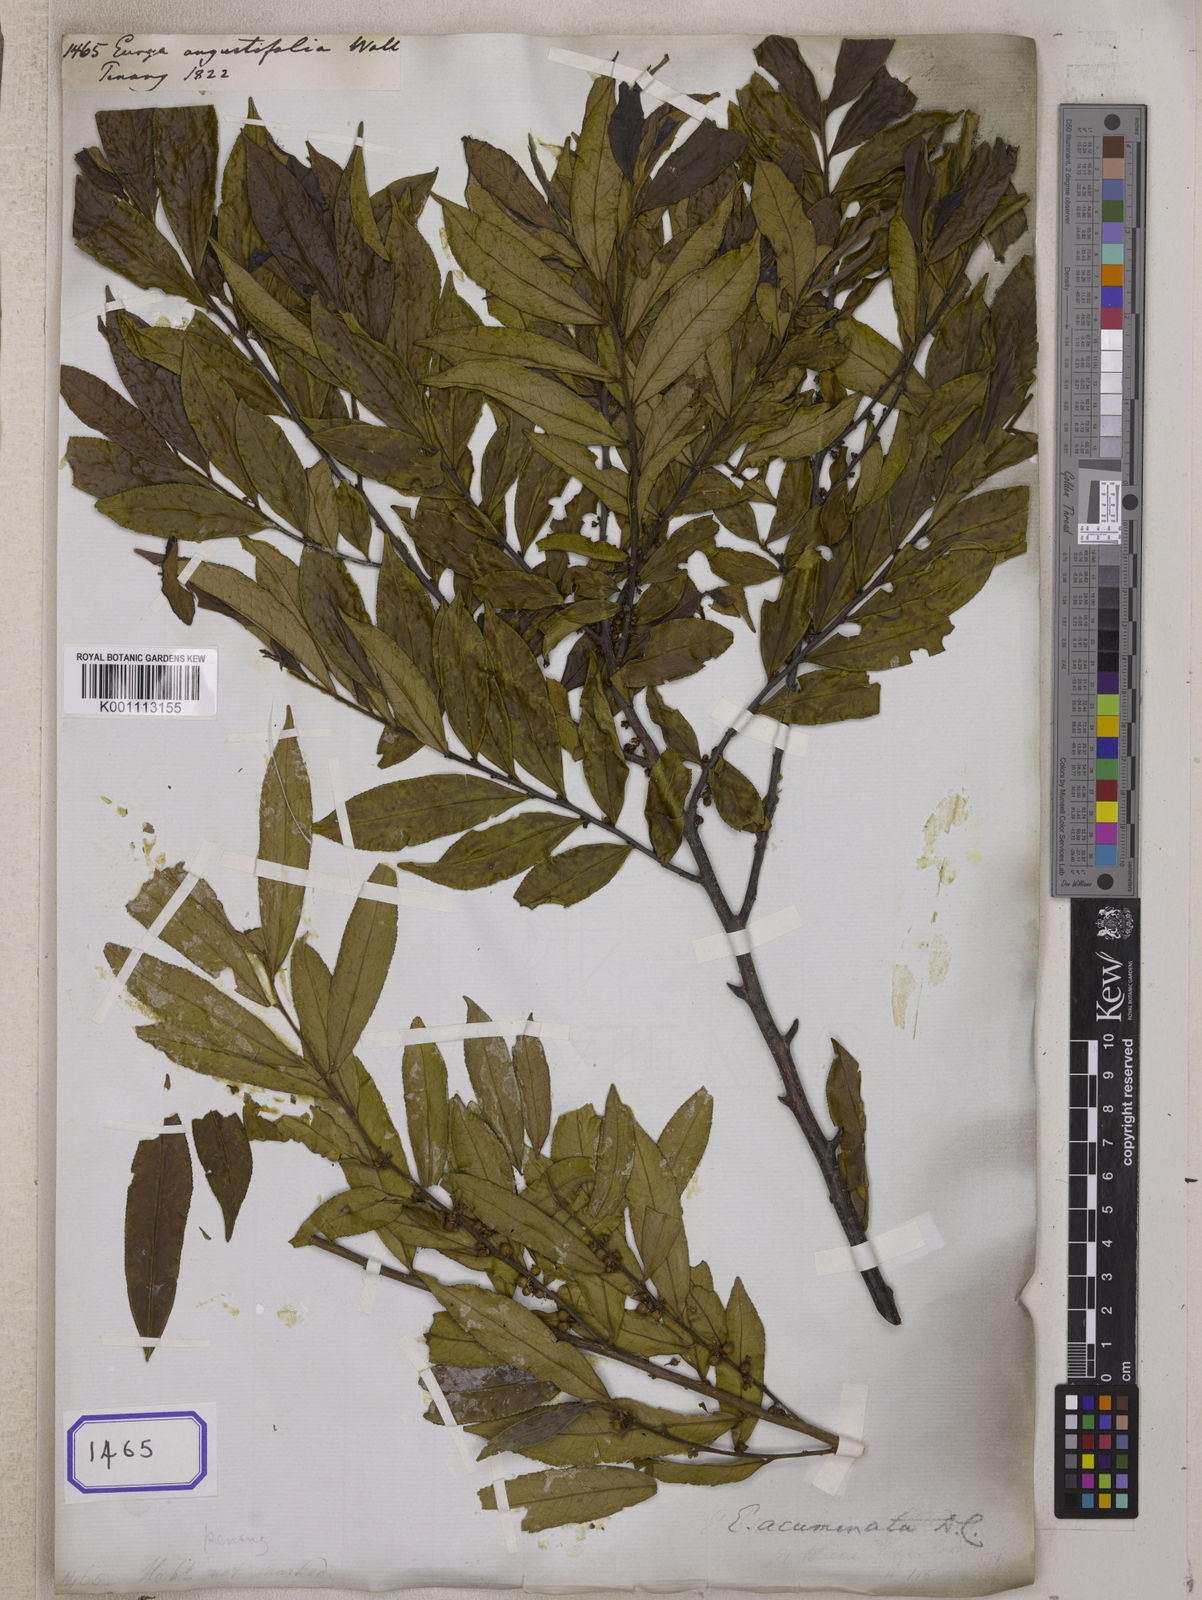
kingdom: Plantae
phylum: Tracheophyta
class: Magnoliopsida
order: Ericales
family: Pentaphylacaceae
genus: Eurya
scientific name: Eurya acuminata
